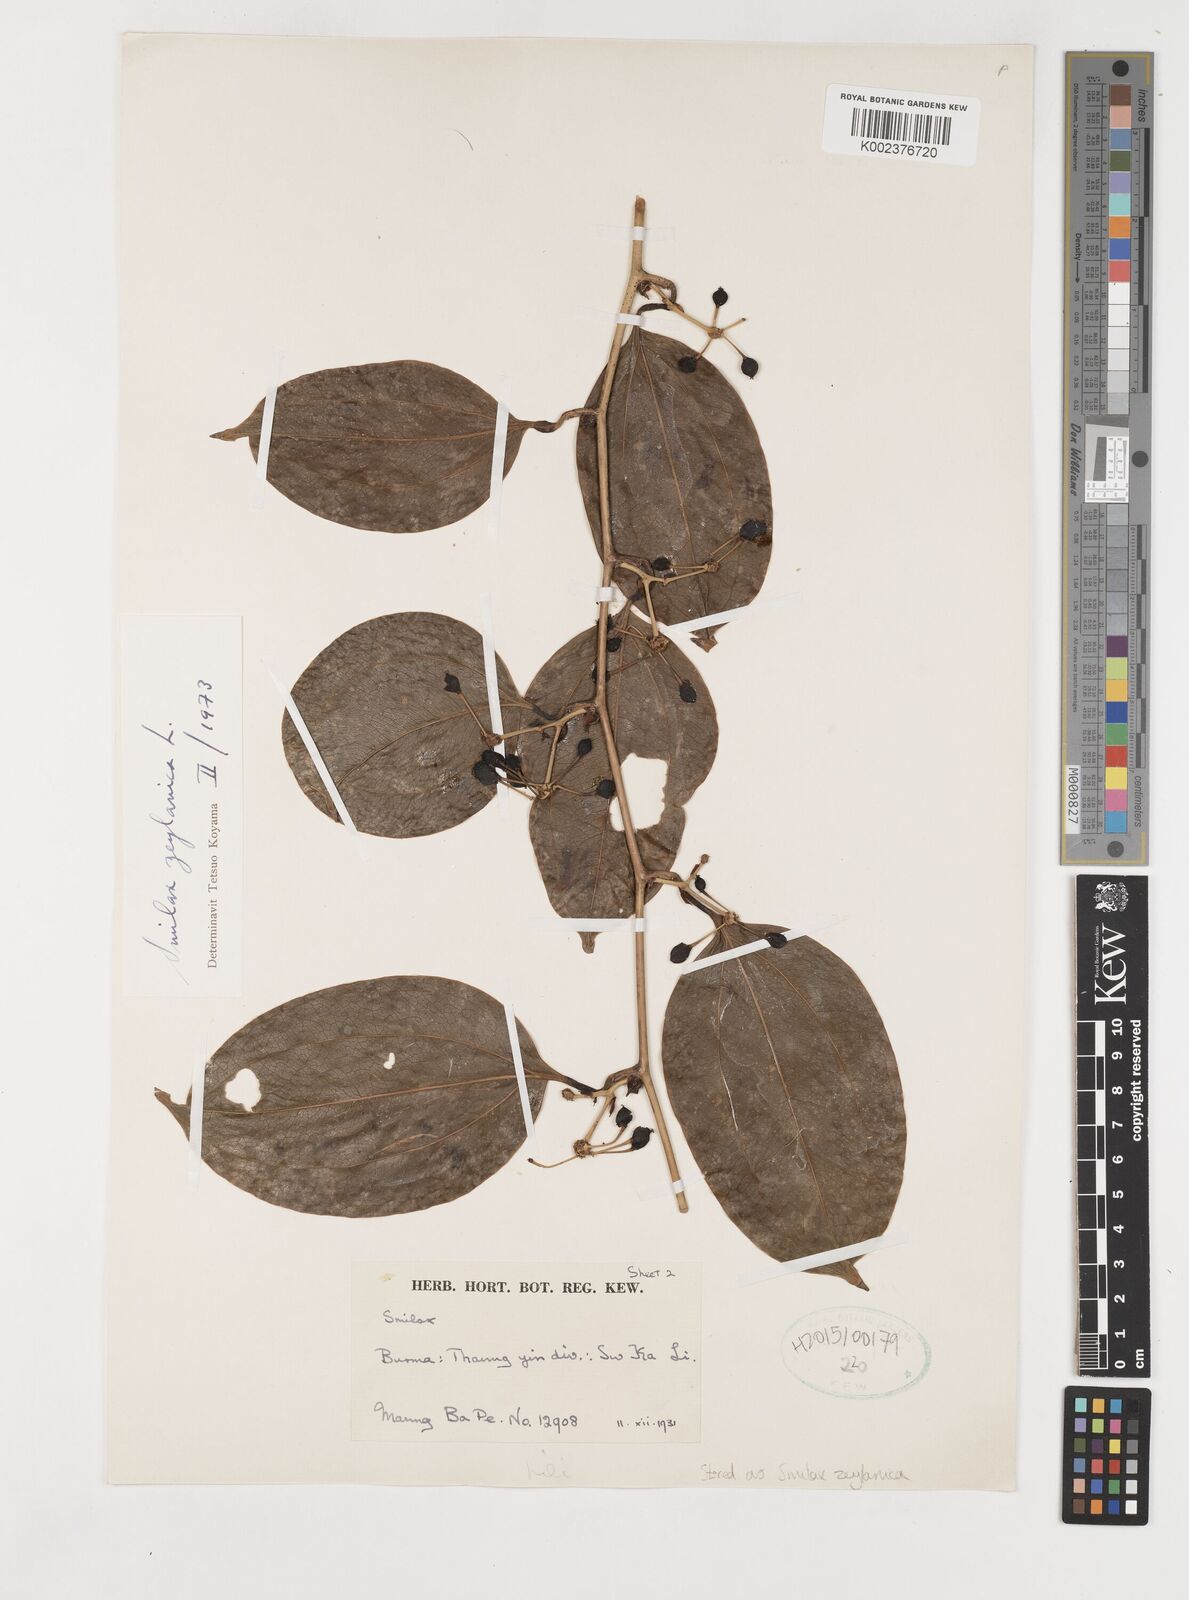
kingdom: Plantae
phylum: Tracheophyta
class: Liliopsida
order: Liliales
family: Smilacaceae
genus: Smilax
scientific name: Smilax zeylanica
